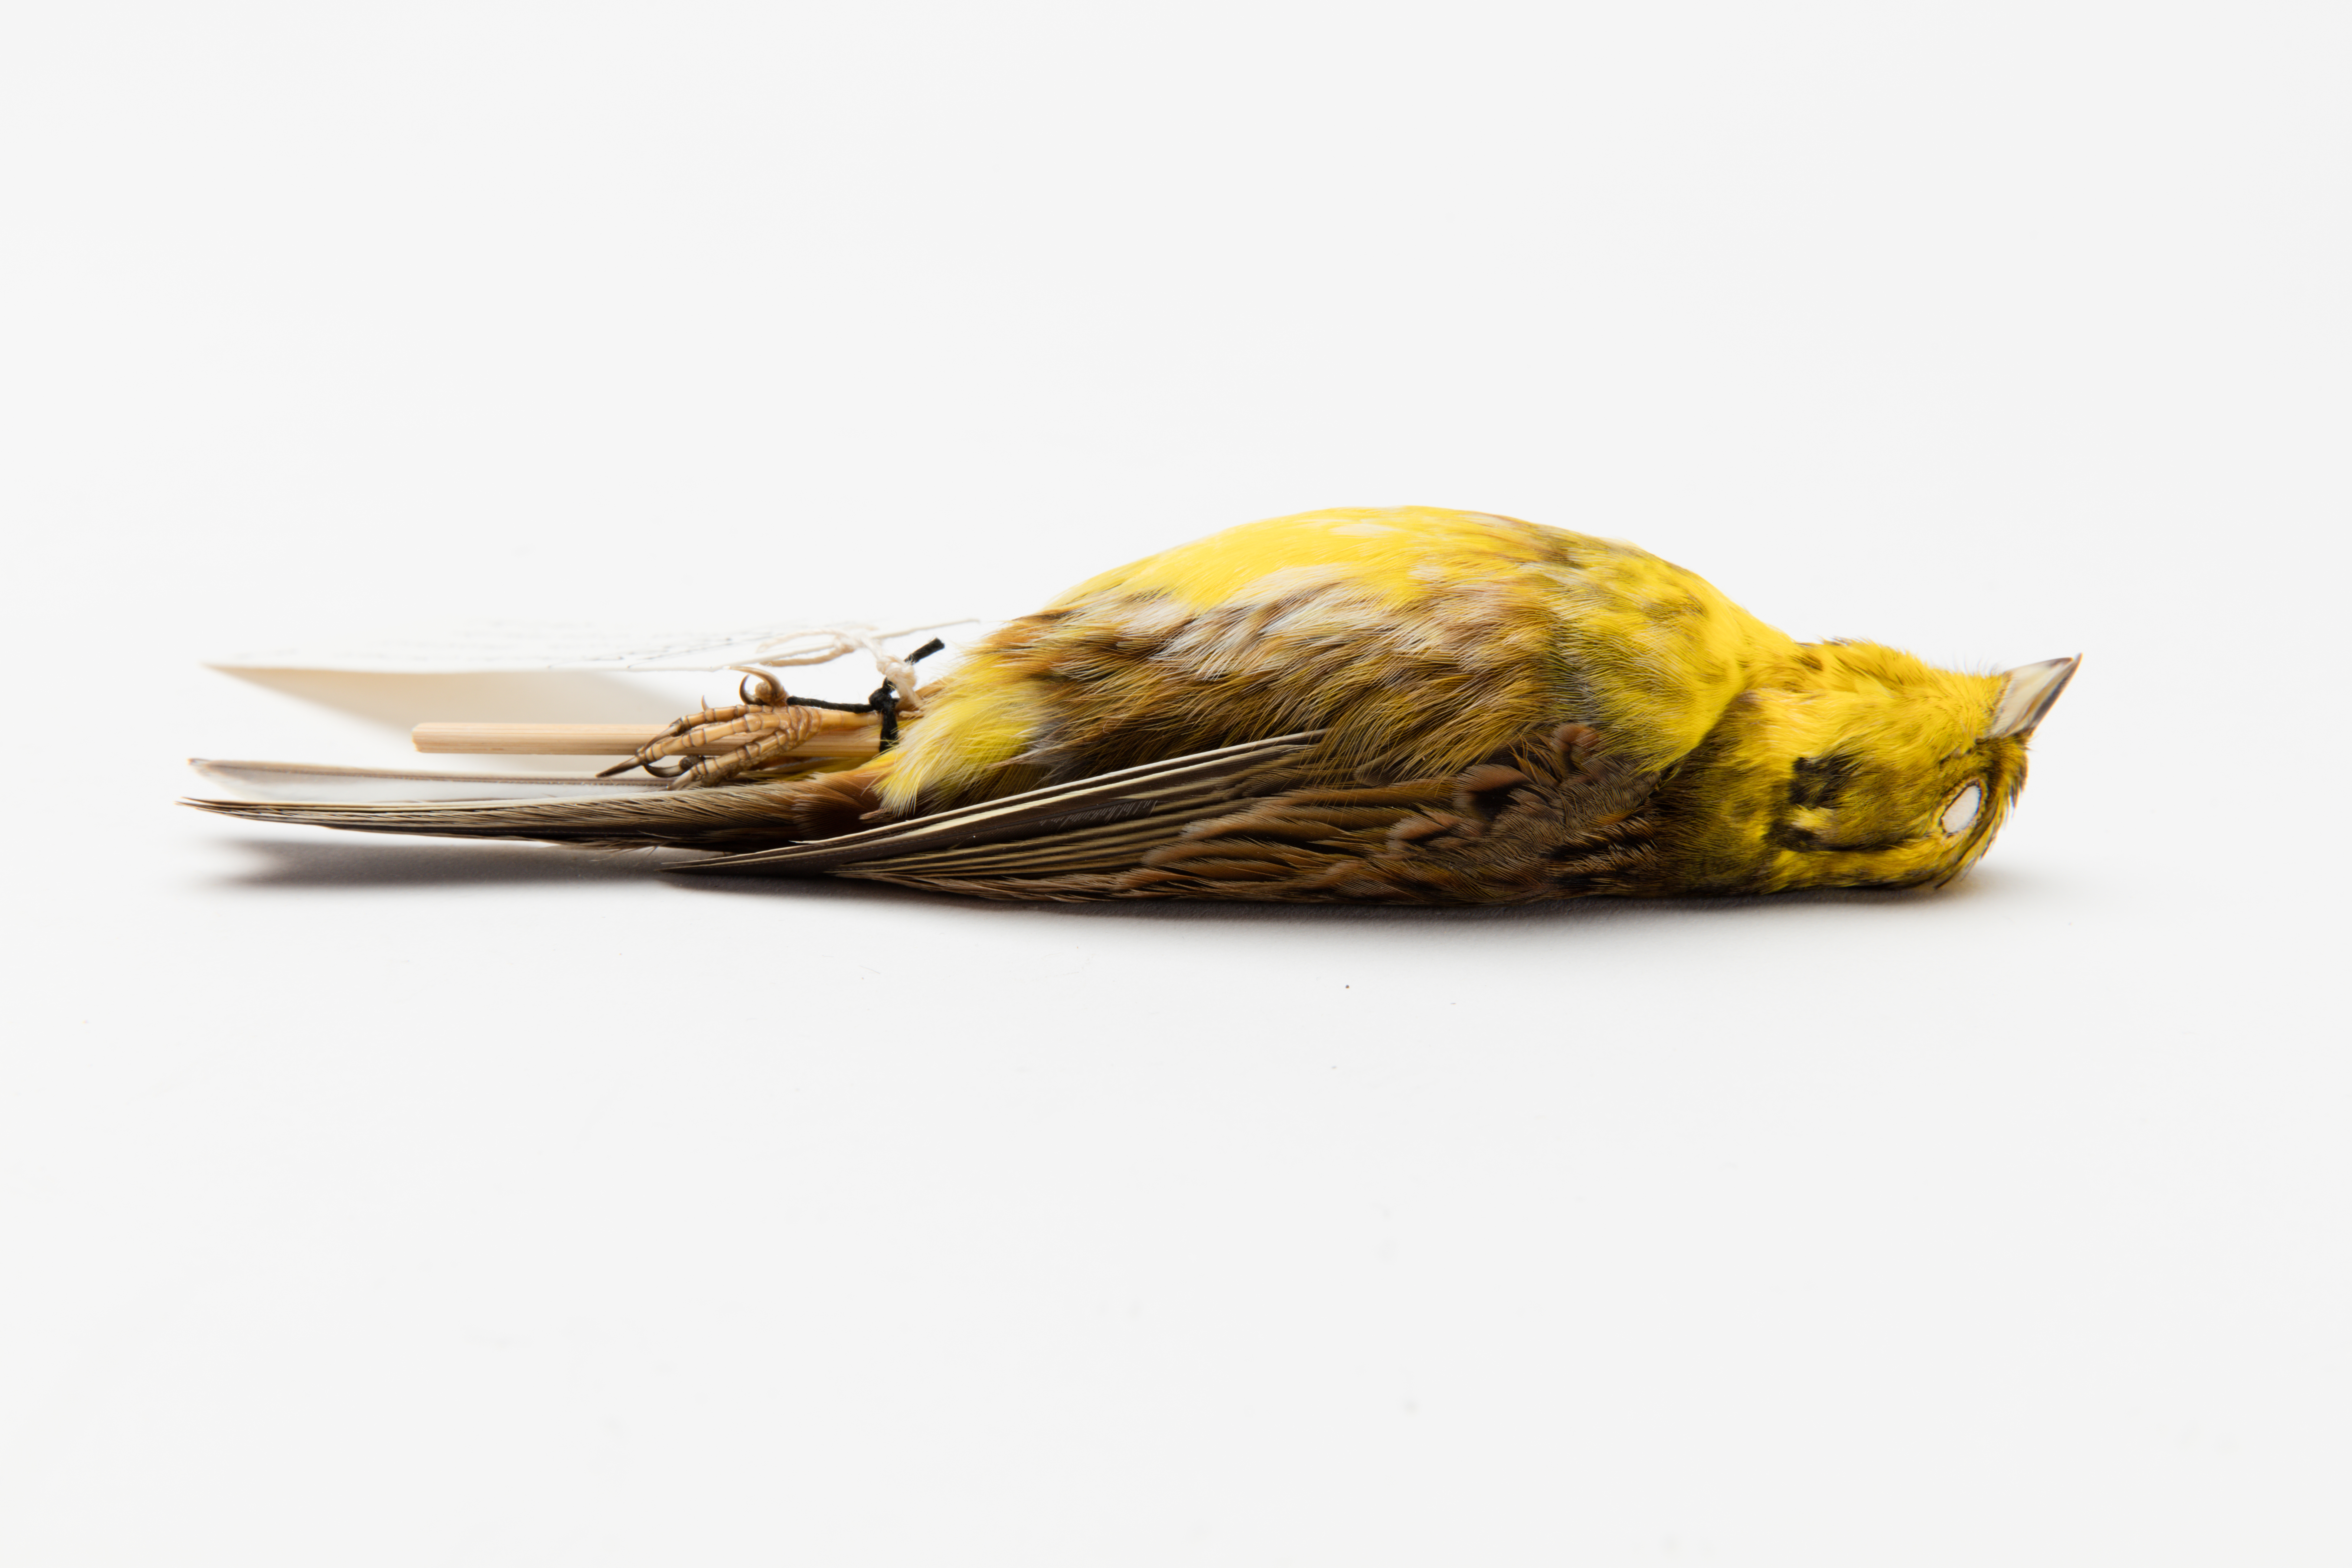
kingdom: Animalia
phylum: Chordata
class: Aves
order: Passeriformes
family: Emberizidae
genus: Emberiza
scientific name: Emberiza citrinella
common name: Yellowhammer
